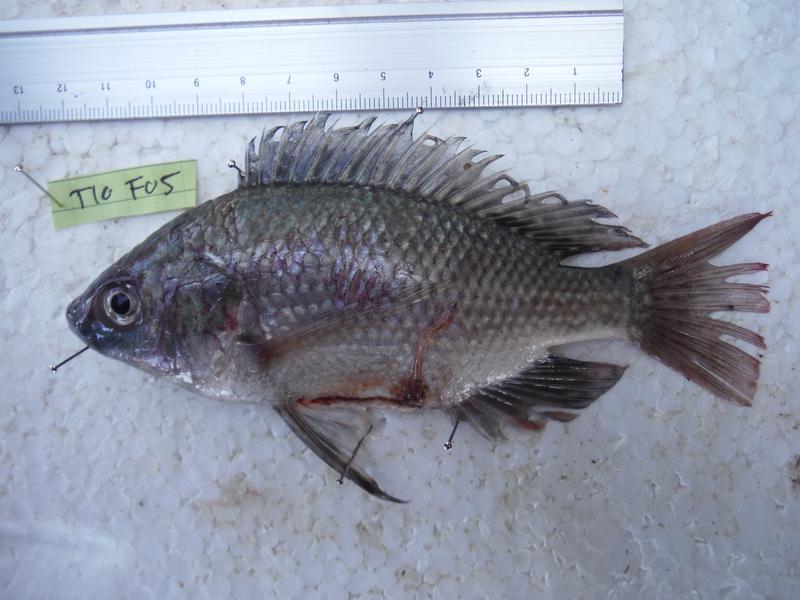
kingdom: Animalia
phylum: Chordata
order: Perciformes
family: Cichlidae
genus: Oreochromis
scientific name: Oreochromis esculentus
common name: Carp
